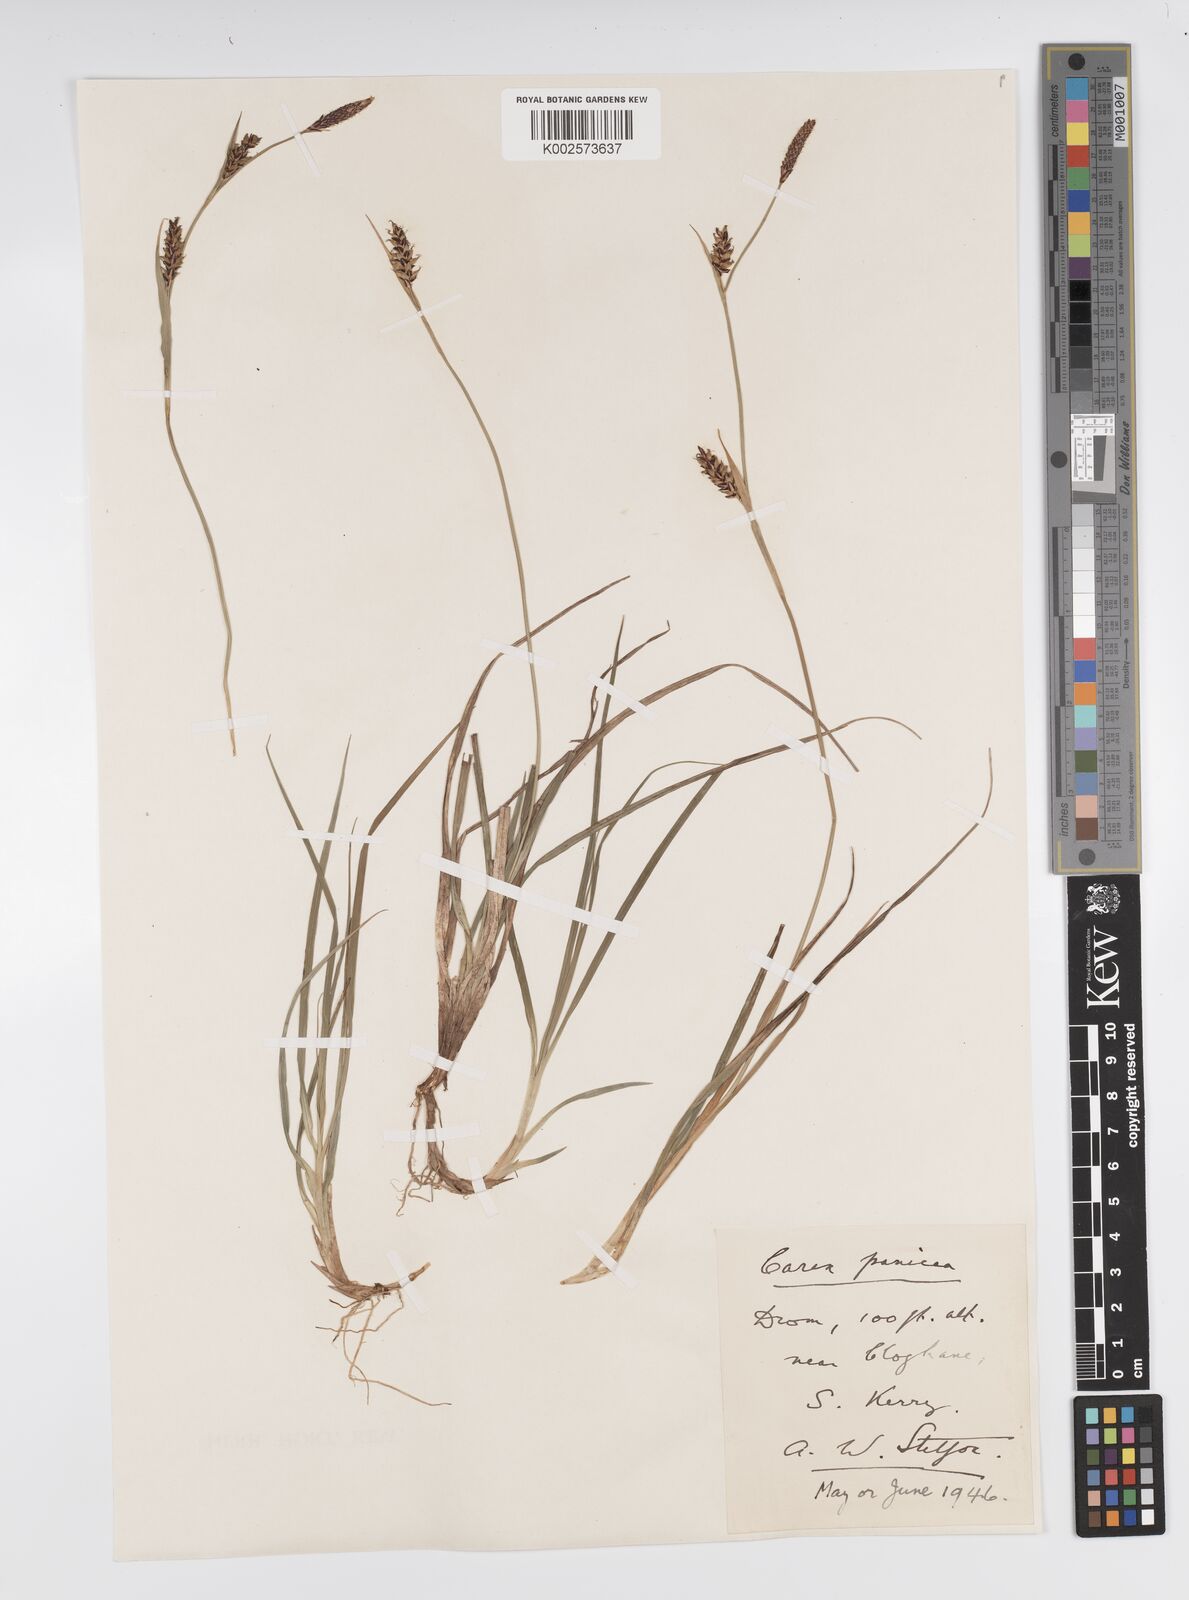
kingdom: Plantae
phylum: Tracheophyta
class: Liliopsida
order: Poales
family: Cyperaceae
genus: Carex
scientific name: Carex panicea
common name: Carnation sedge
